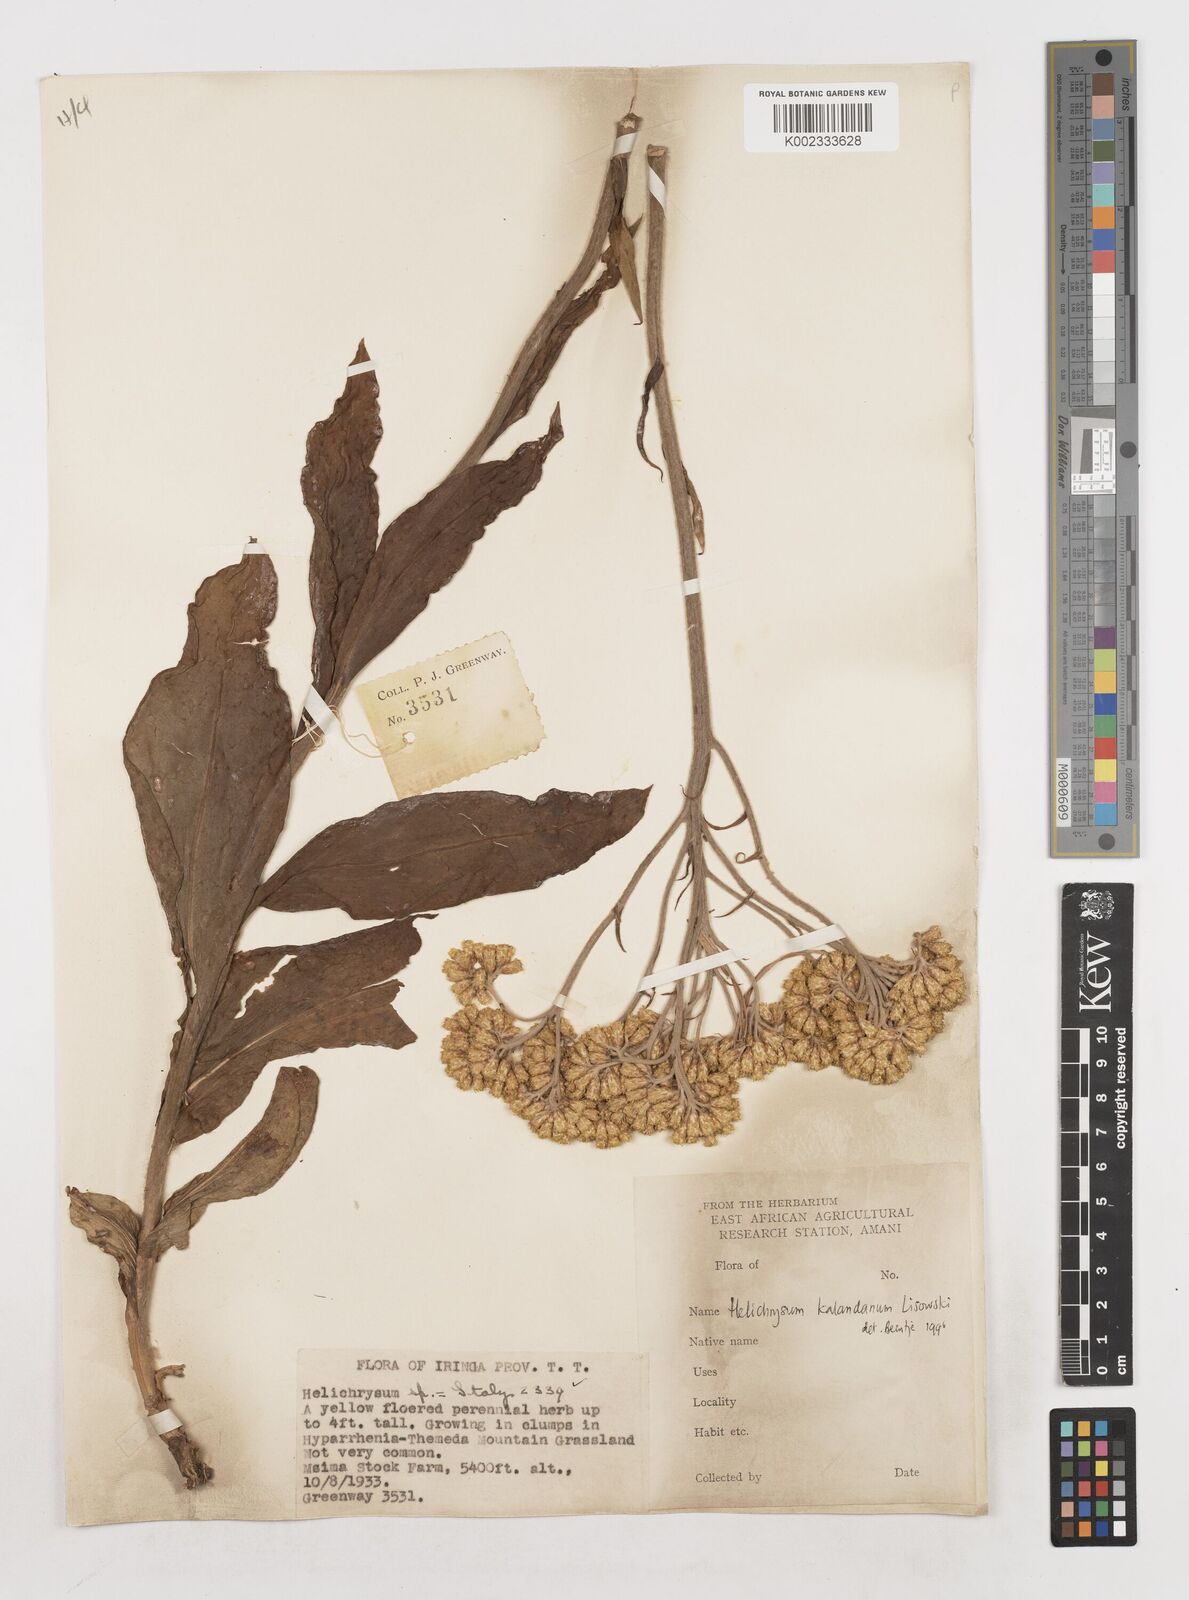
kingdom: Plantae
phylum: Tracheophyta
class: Magnoliopsida
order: Asterales
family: Asteraceae
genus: Helichrysum
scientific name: Helichrysum kalandanum
